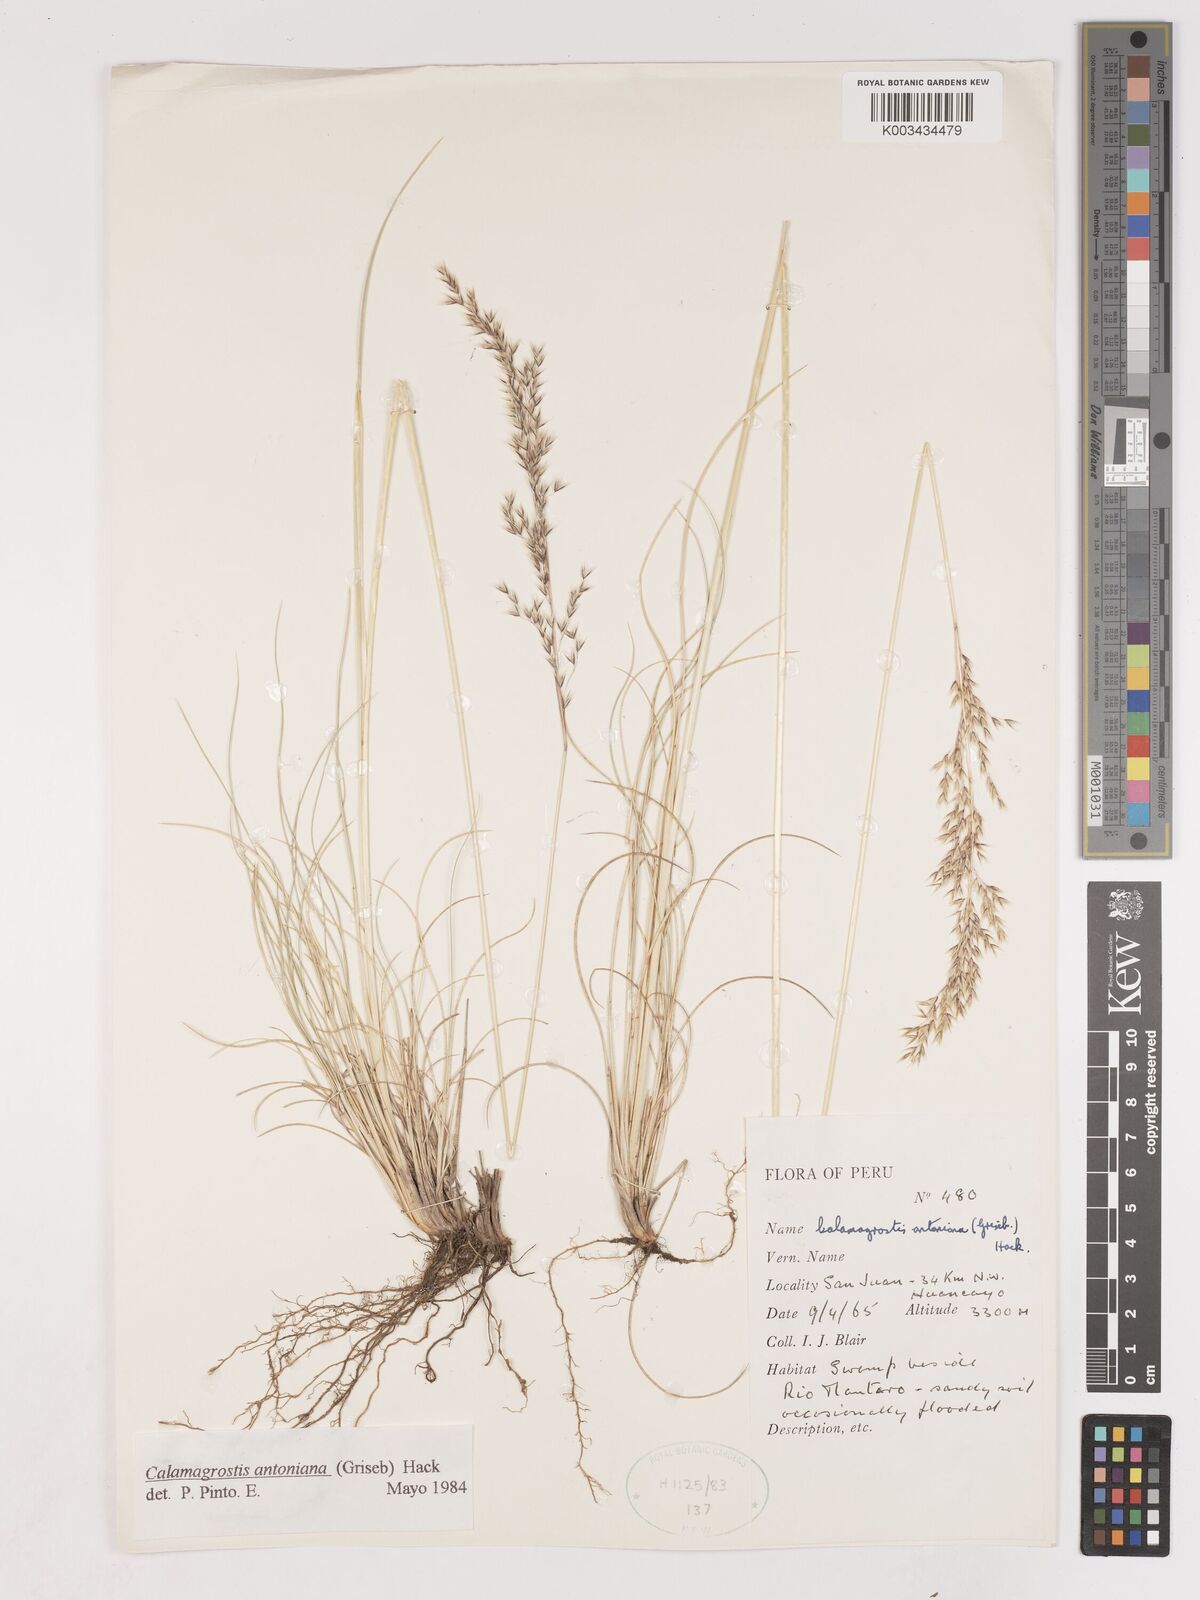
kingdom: Plantae
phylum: Tracheophyta
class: Liliopsida
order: Poales
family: Poaceae
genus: Cinnagrostis
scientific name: Cinnagrostis rigida
